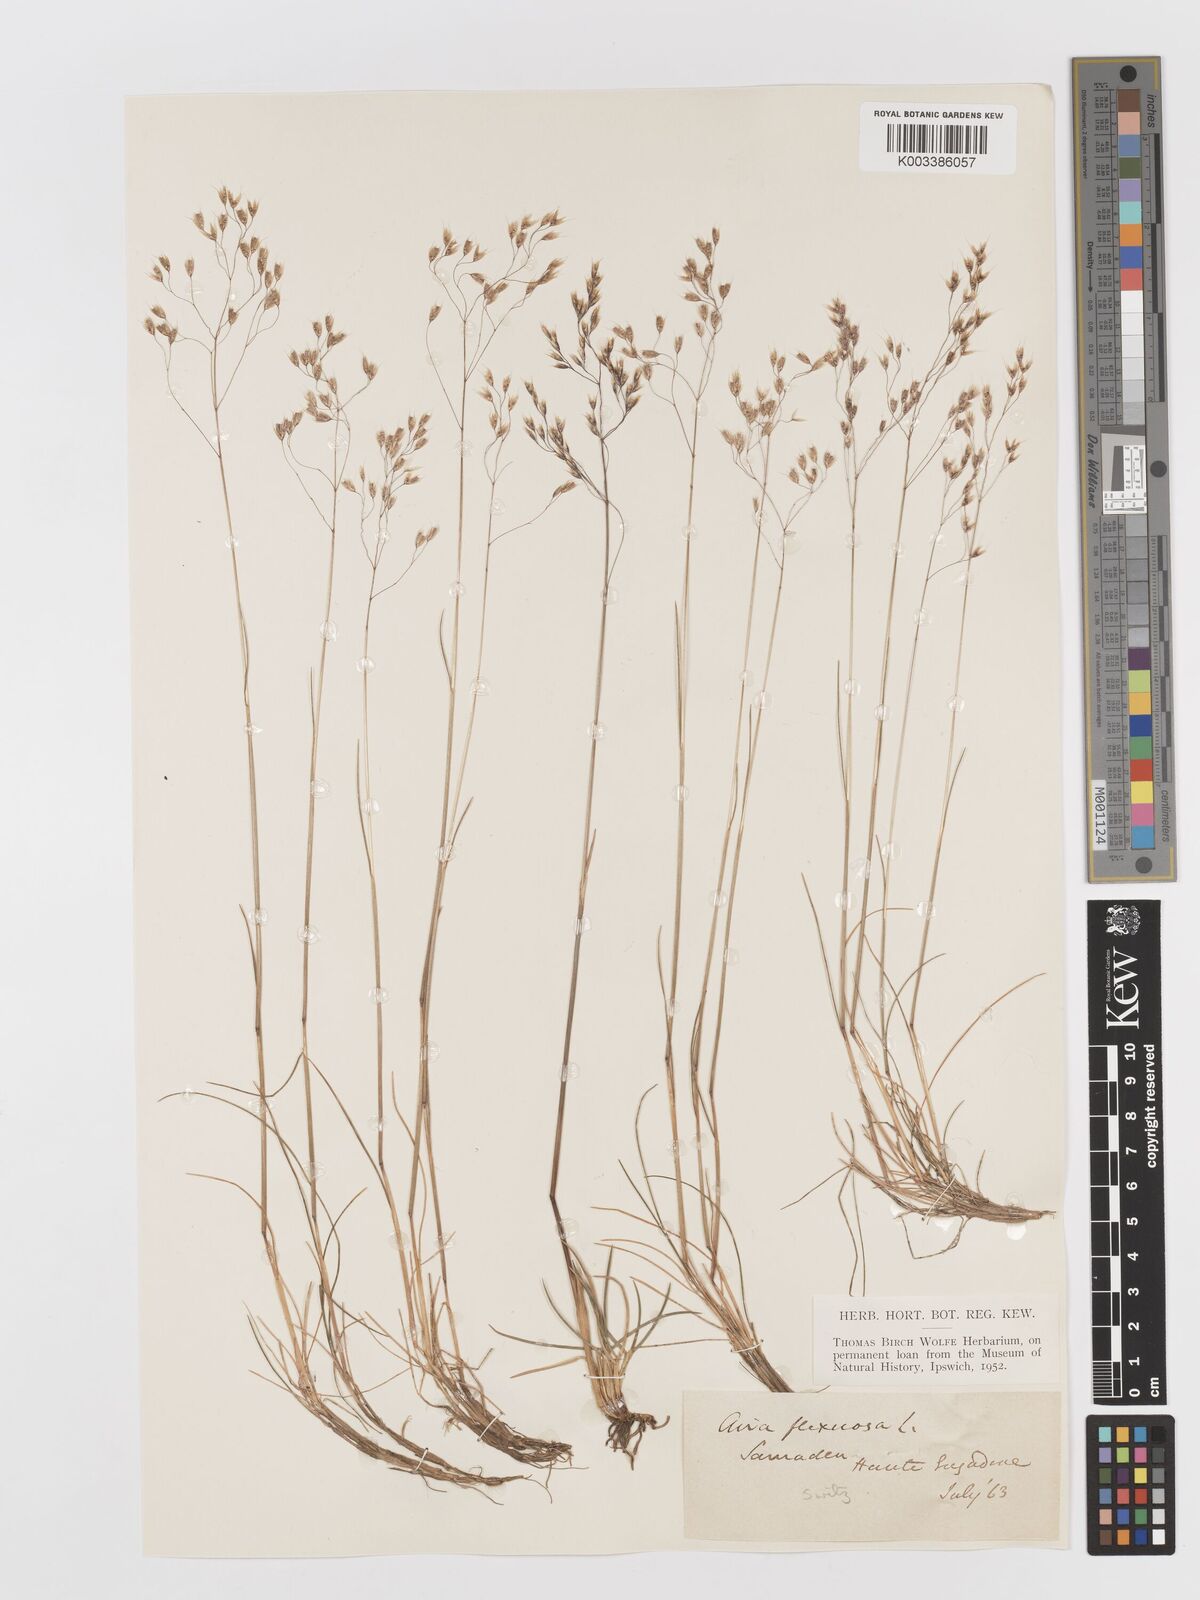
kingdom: Plantae
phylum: Tracheophyta
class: Liliopsida
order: Poales
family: Poaceae
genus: Avenella
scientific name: Avenella flexuosa
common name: Wavy hairgrass
